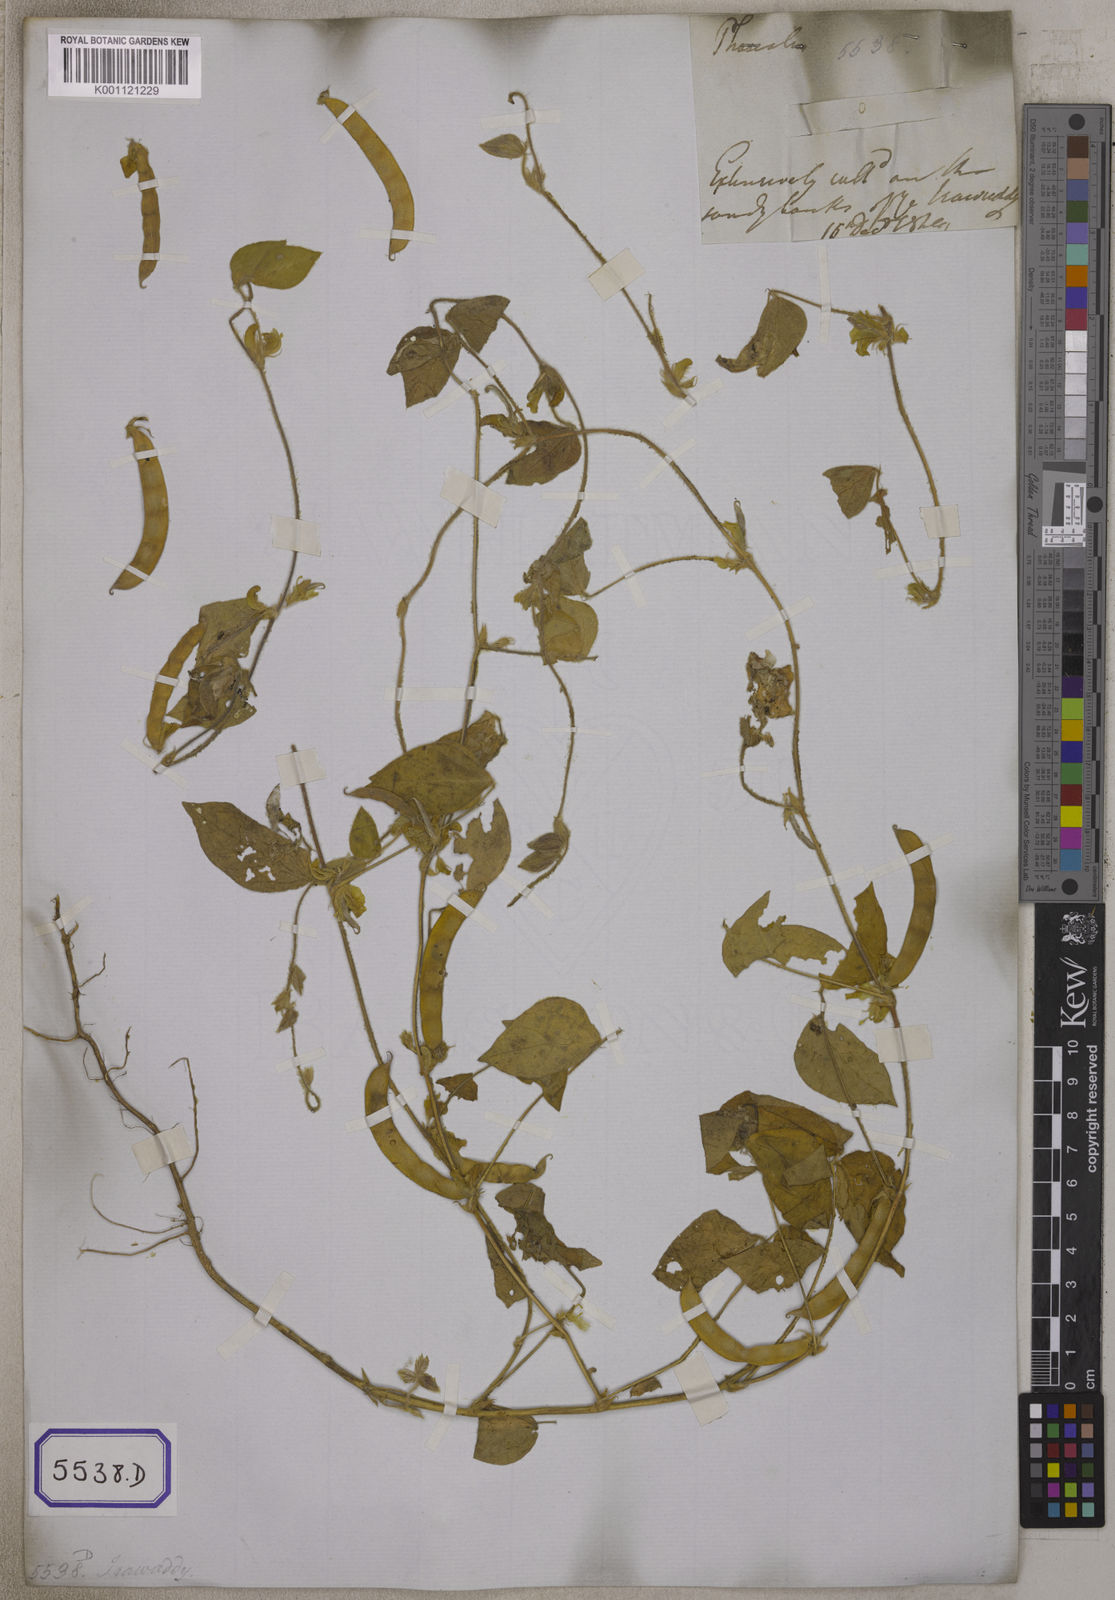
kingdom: Plantae
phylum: Tracheophyta
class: Magnoliopsida
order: Fabales
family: Fabaceae
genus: Macrotyloma
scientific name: Macrotyloma uniflorum
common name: Horse gram
